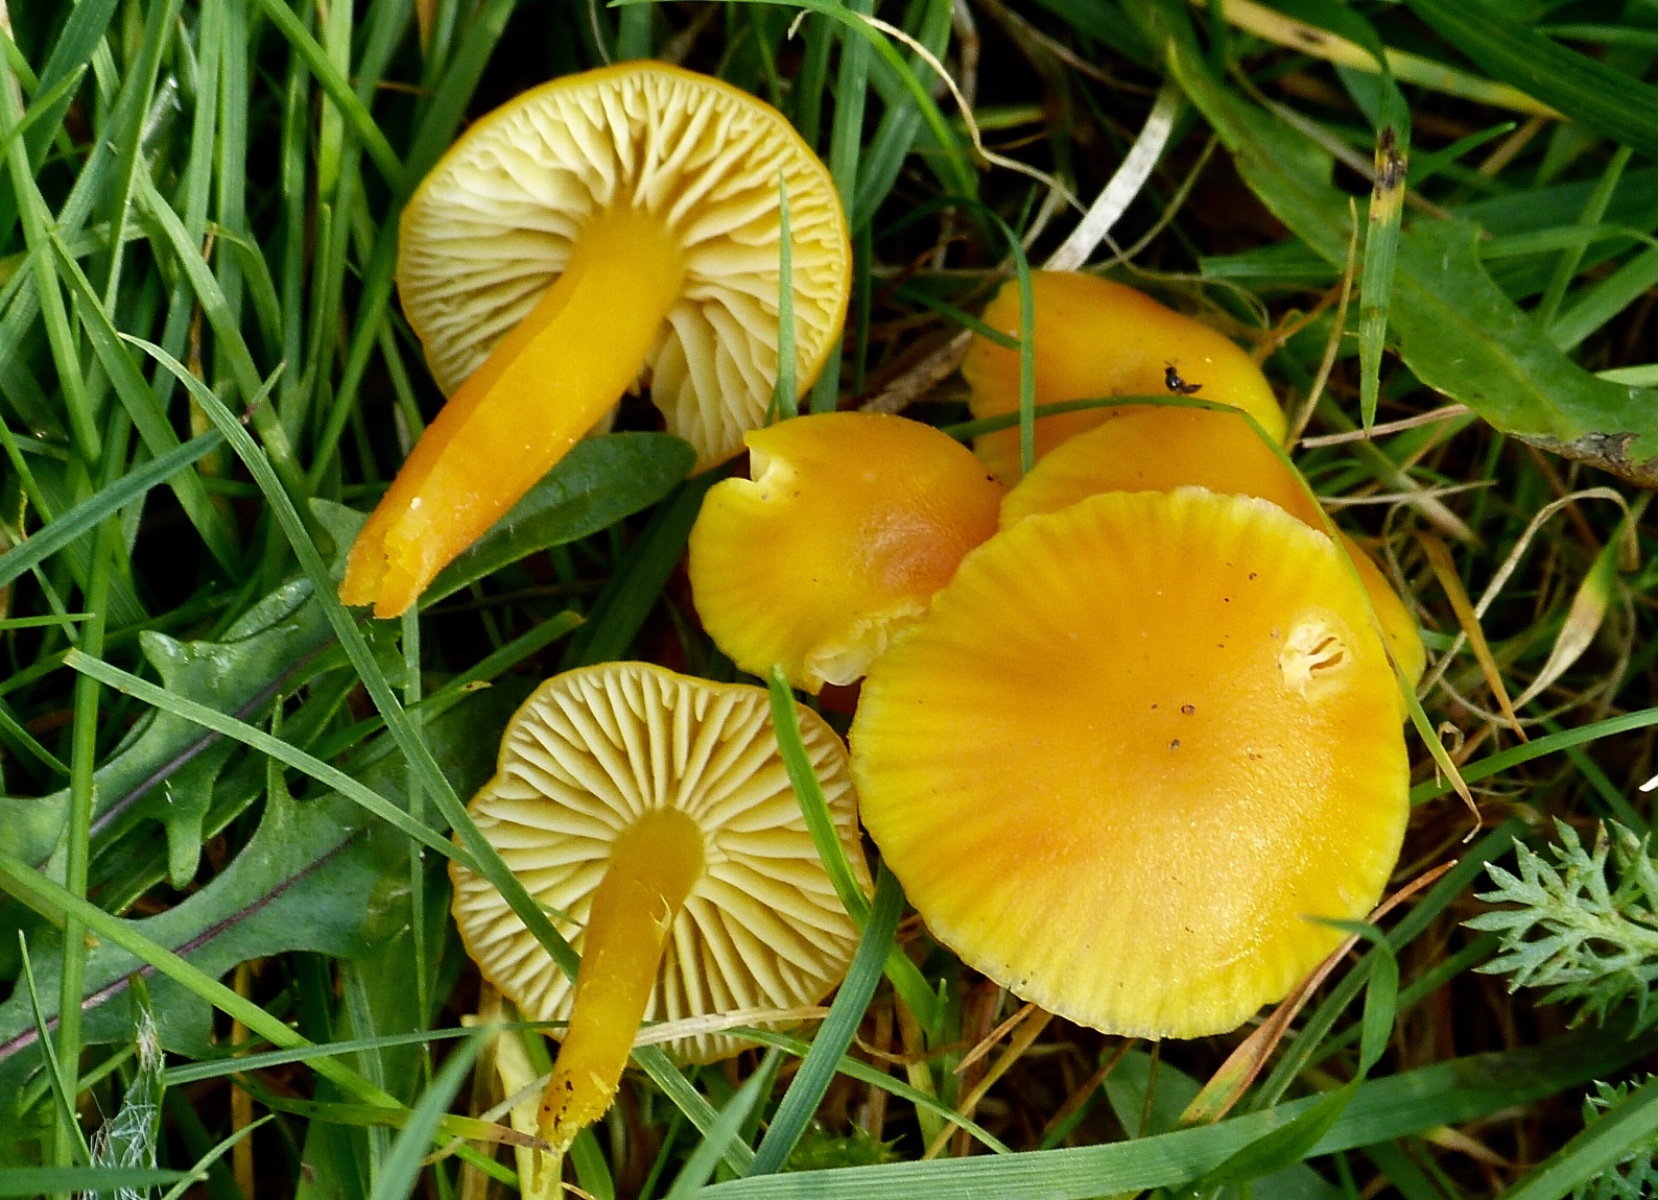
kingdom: Fungi
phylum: Basidiomycota
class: Agaricomycetes
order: Agaricales
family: Hygrophoraceae
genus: Hygrocybe
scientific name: Hygrocybe ceracea
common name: voksgul vokshat
